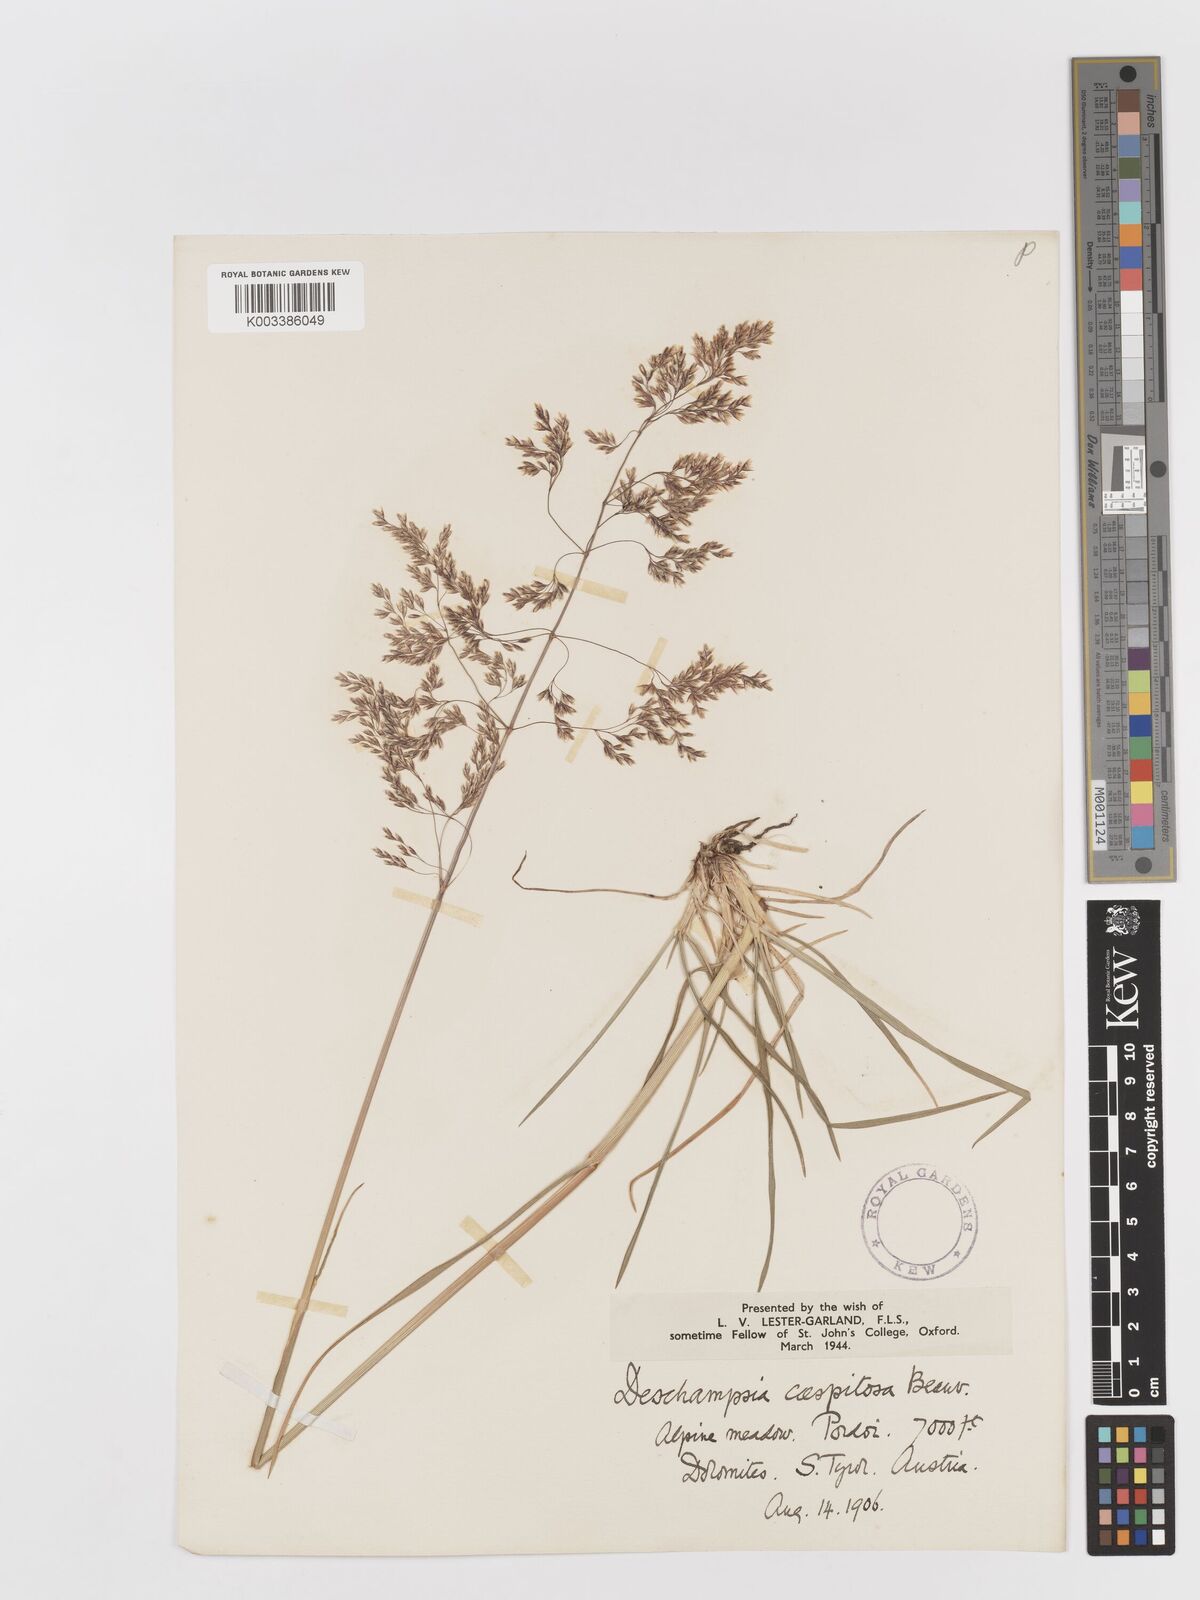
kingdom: Plantae
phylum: Tracheophyta
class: Liliopsida
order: Poales
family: Poaceae
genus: Avenella
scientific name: Avenella flexuosa
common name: Wavy hairgrass
